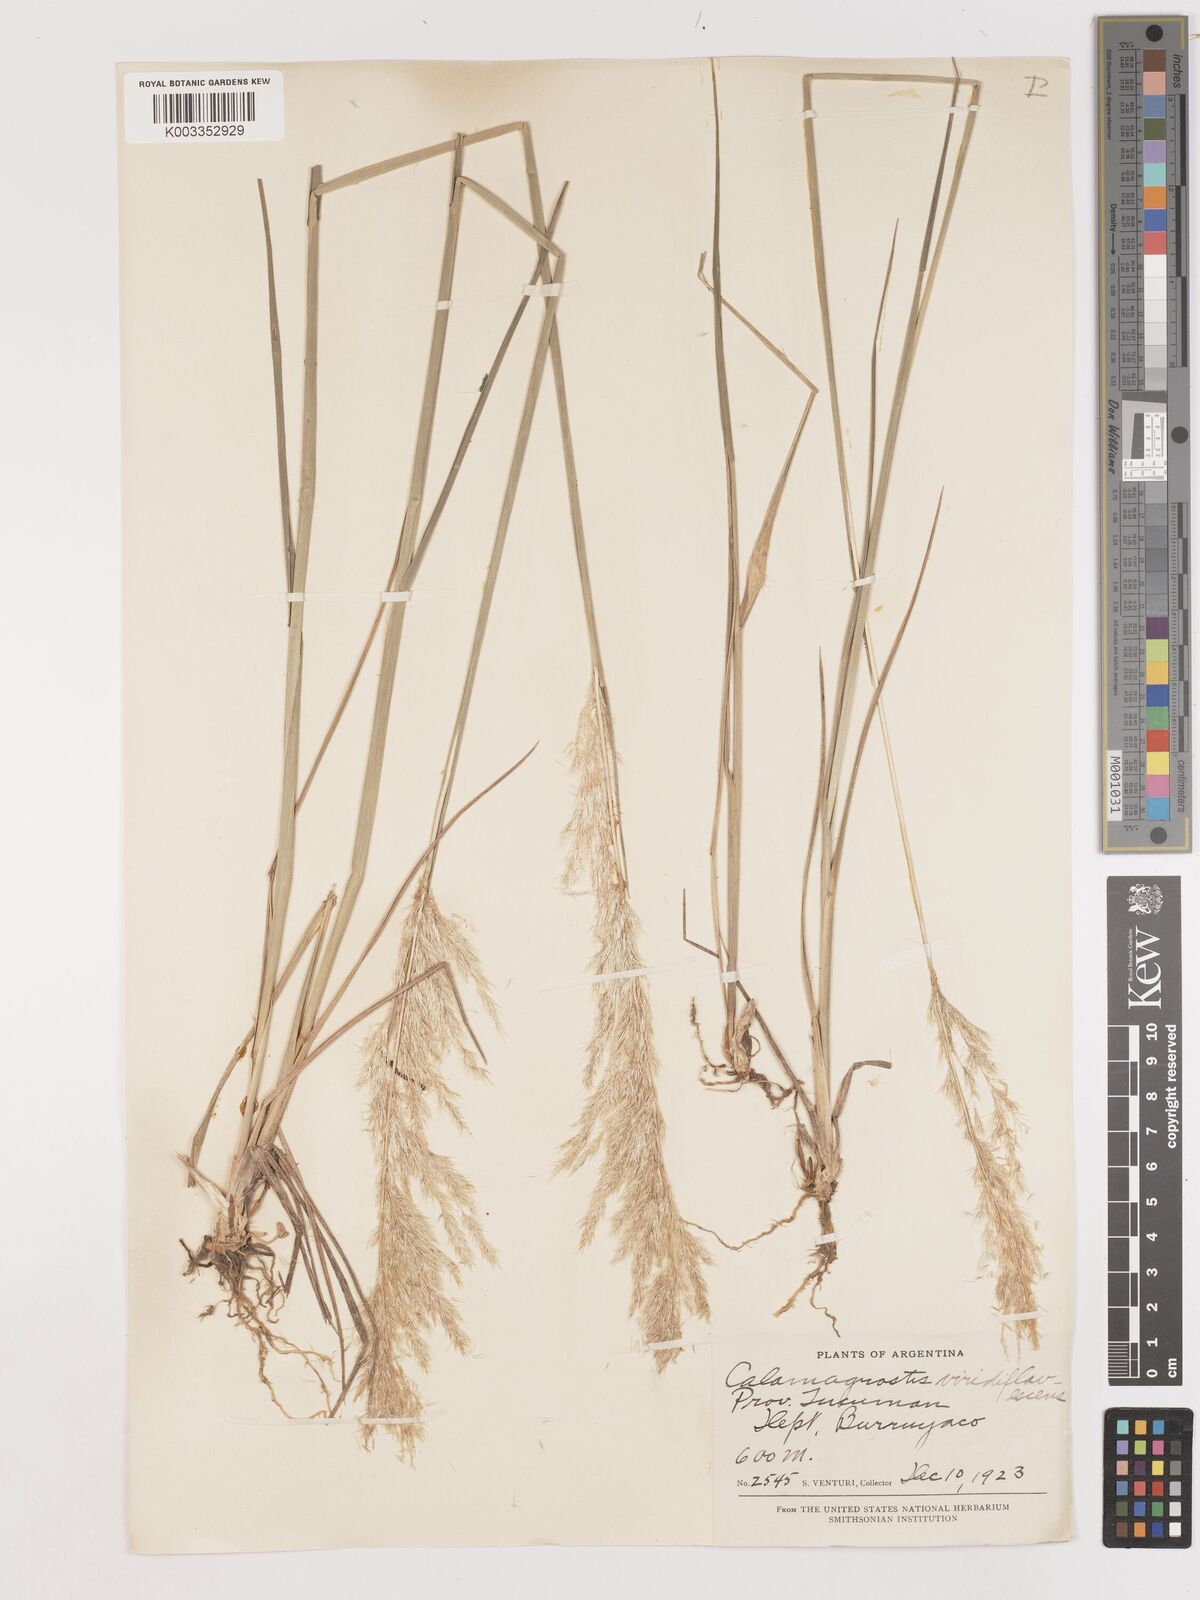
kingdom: Plantae
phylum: Tracheophyta
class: Liliopsida
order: Poales
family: Poaceae
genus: Cinnagrostis
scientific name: Cinnagrostis viridiflavescens
